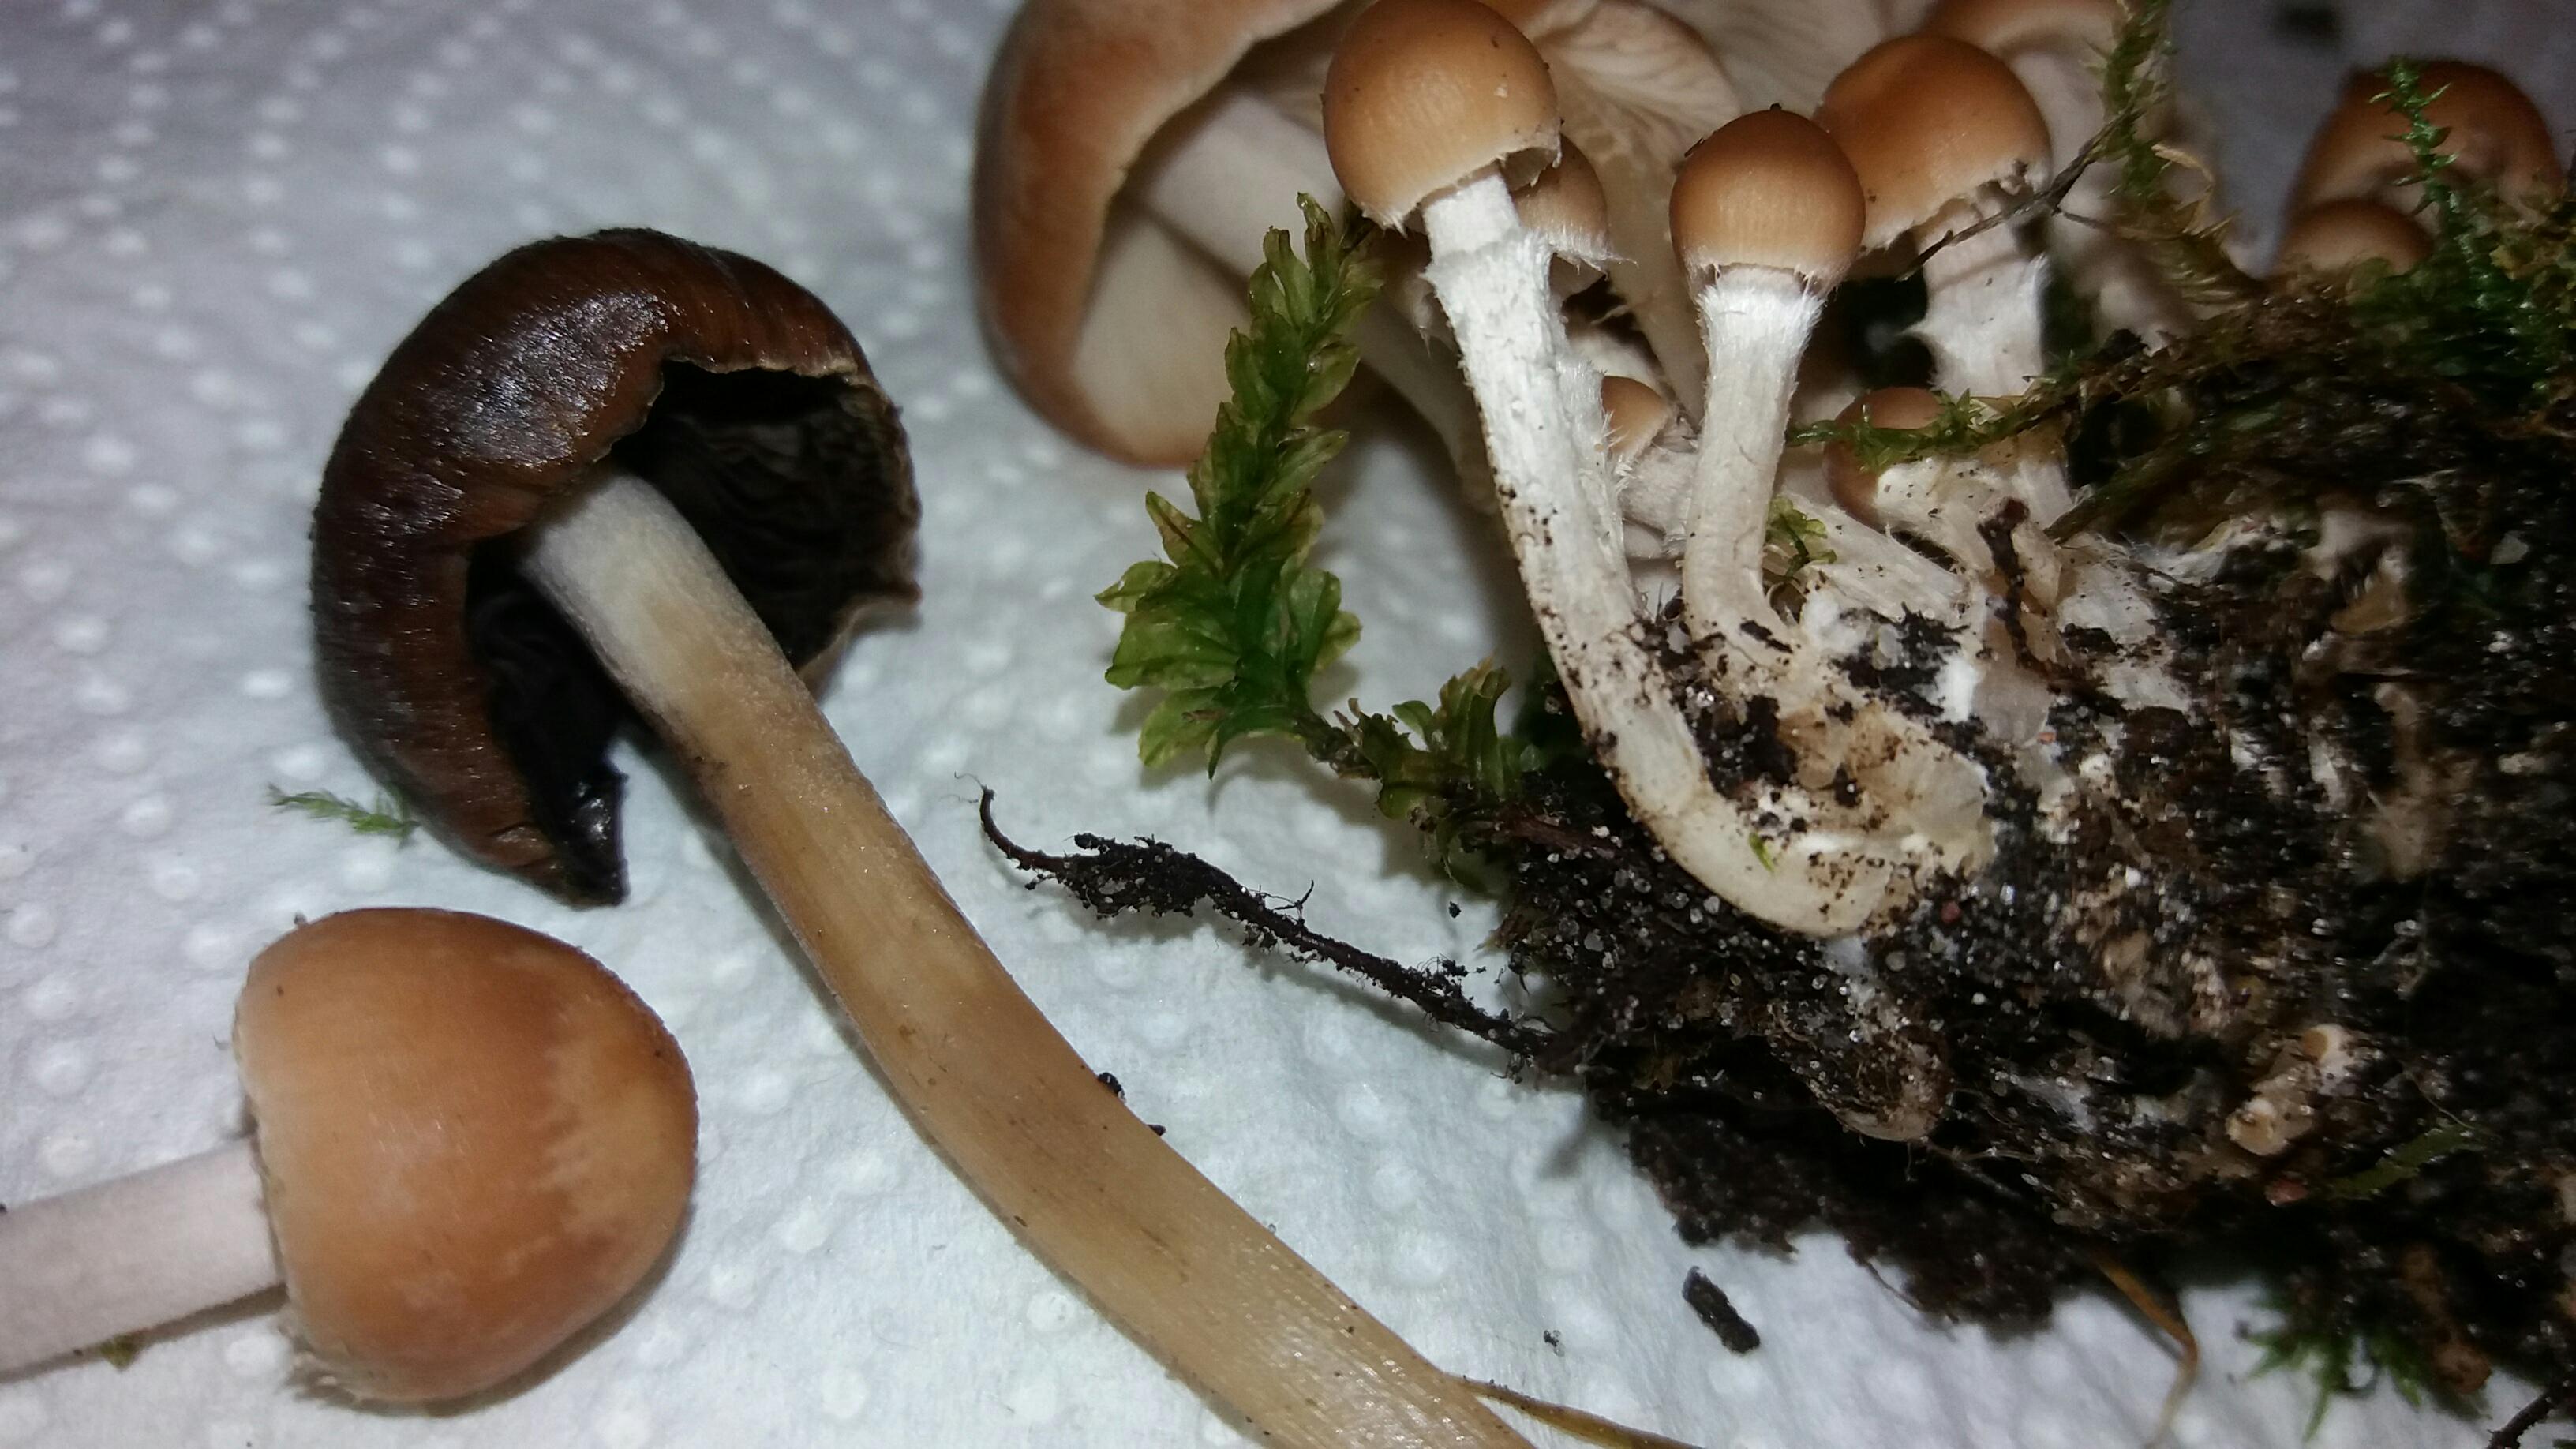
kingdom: Fungi
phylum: Basidiomycota
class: Agaricomycetes
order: Agaricales
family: Psathyrellaceae
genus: Britzelmayria
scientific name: Britzelmayria multipedata
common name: knippe-mørkhat
